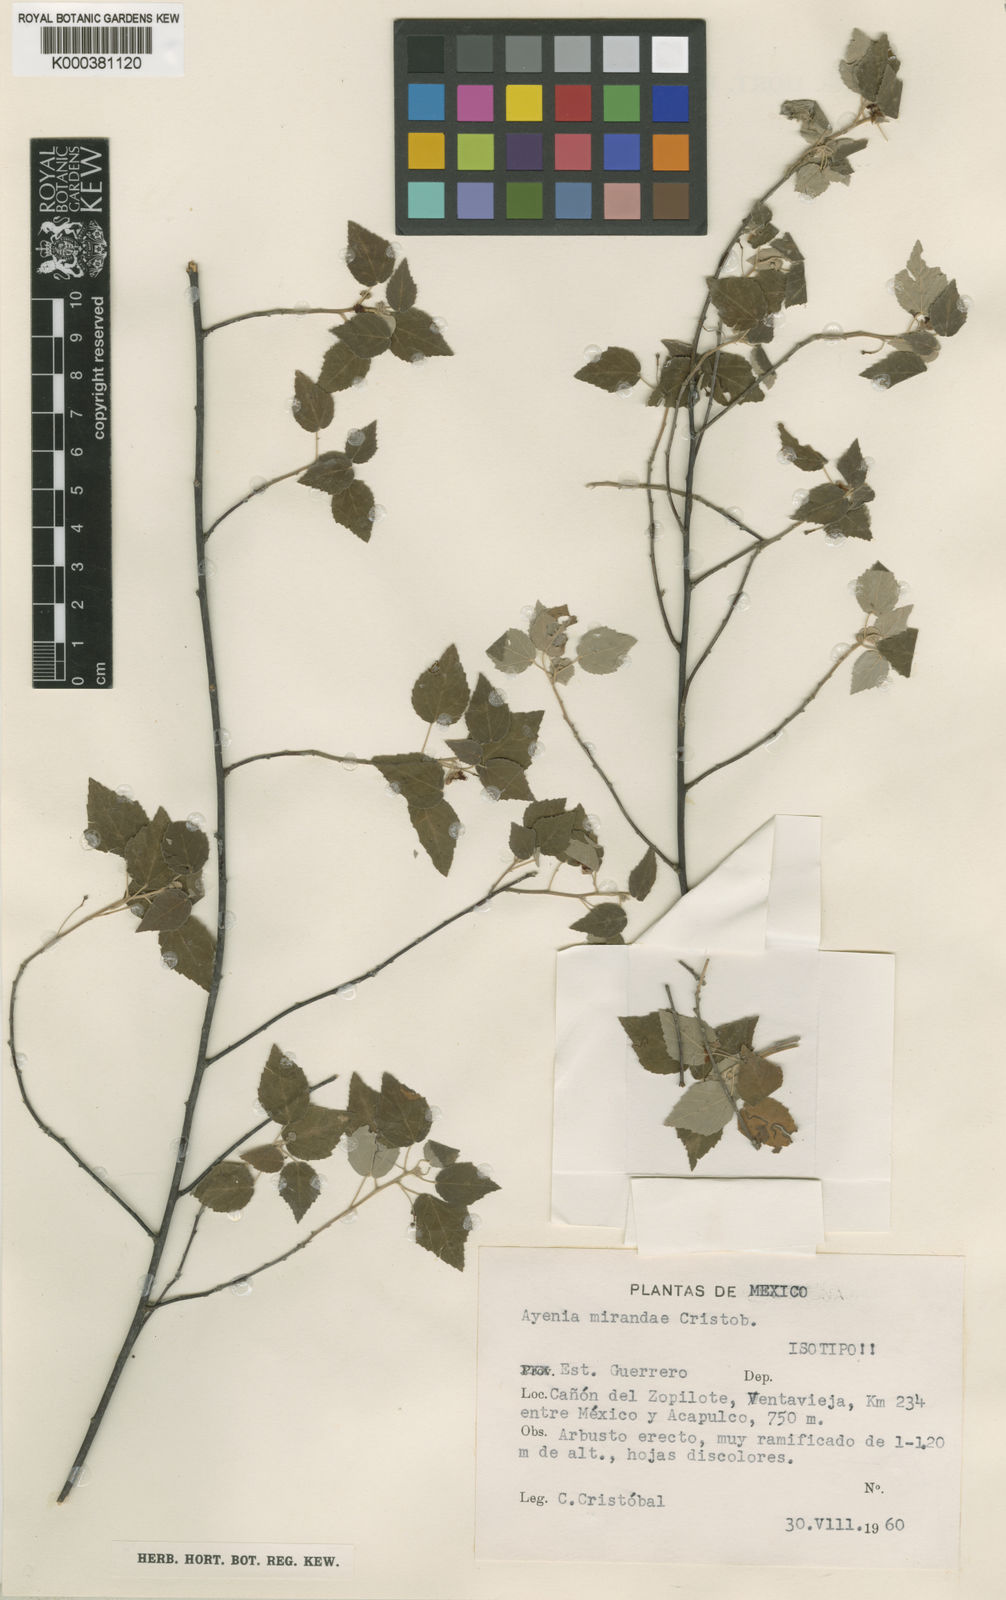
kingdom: Plantae
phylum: Tracheophyta
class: Magnoliopsida
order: Malvales
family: Malvaceae
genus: Ayenia
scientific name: Ayenia
